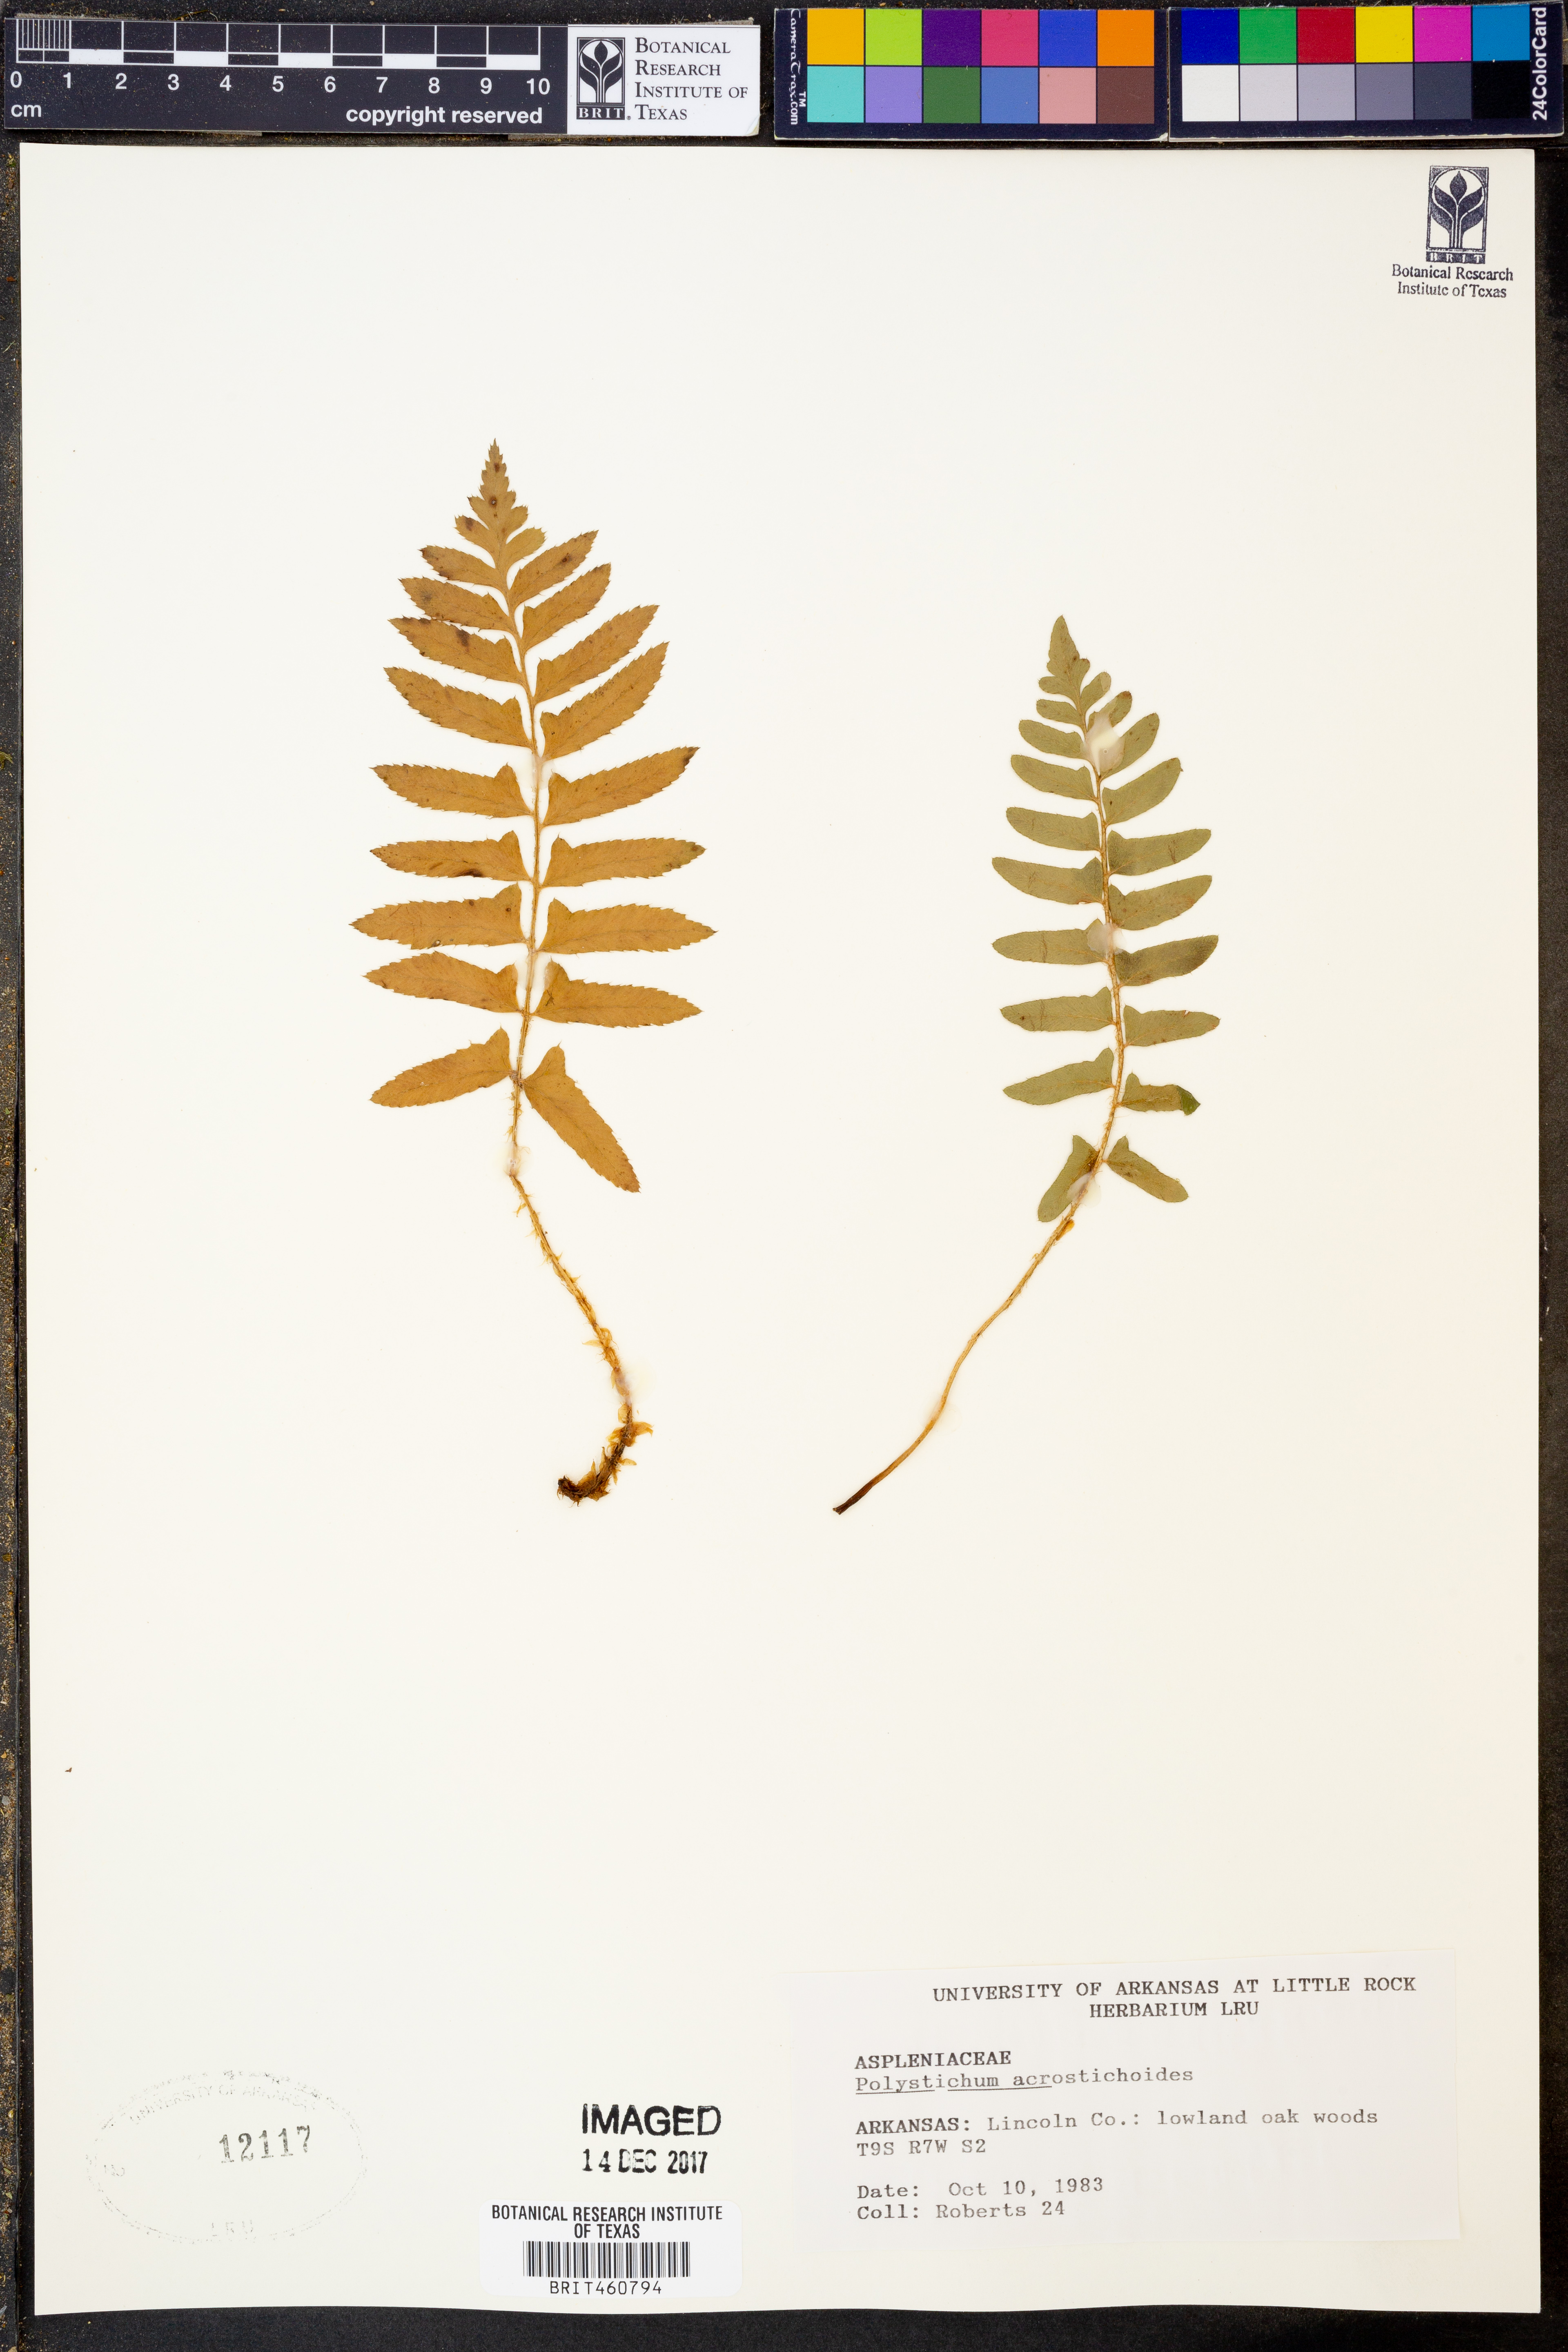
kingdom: Plantae
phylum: Tracheophyta
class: Polypodiopsida
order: Polypodiales
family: Dryopteridaceae
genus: Polystichum
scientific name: Polystichum acrostichoides
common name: Christmas fern
